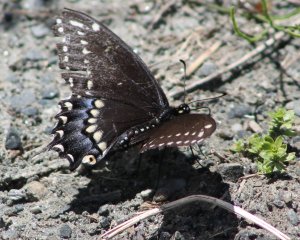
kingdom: Animalia
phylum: Arthropoda
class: Insecta
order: Lepidoptera
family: Papilionidae
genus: Papilio
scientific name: Papilio polyxenes
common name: Black Swallowtail
